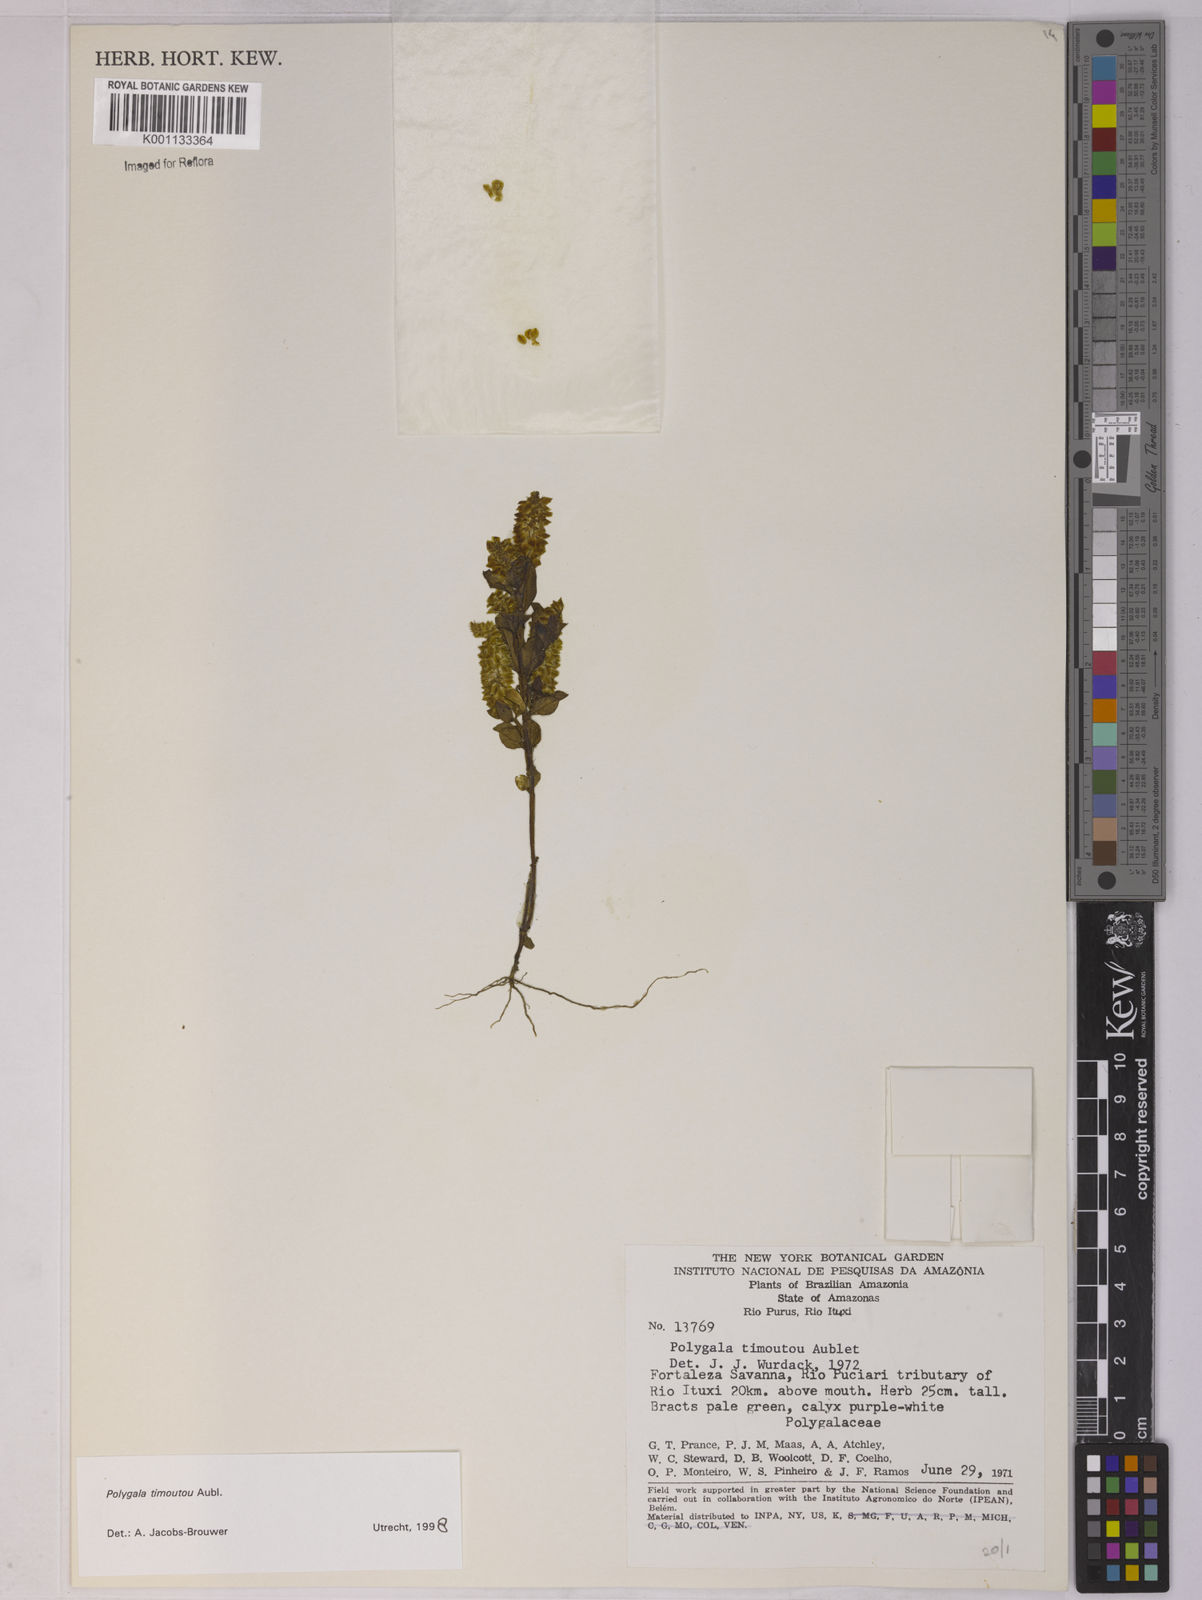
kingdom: Plantae
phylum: Tracheophyta
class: Magnoliopsida
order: Fabales
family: Polygalaceae
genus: Polygala
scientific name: Polygala timoutoides
